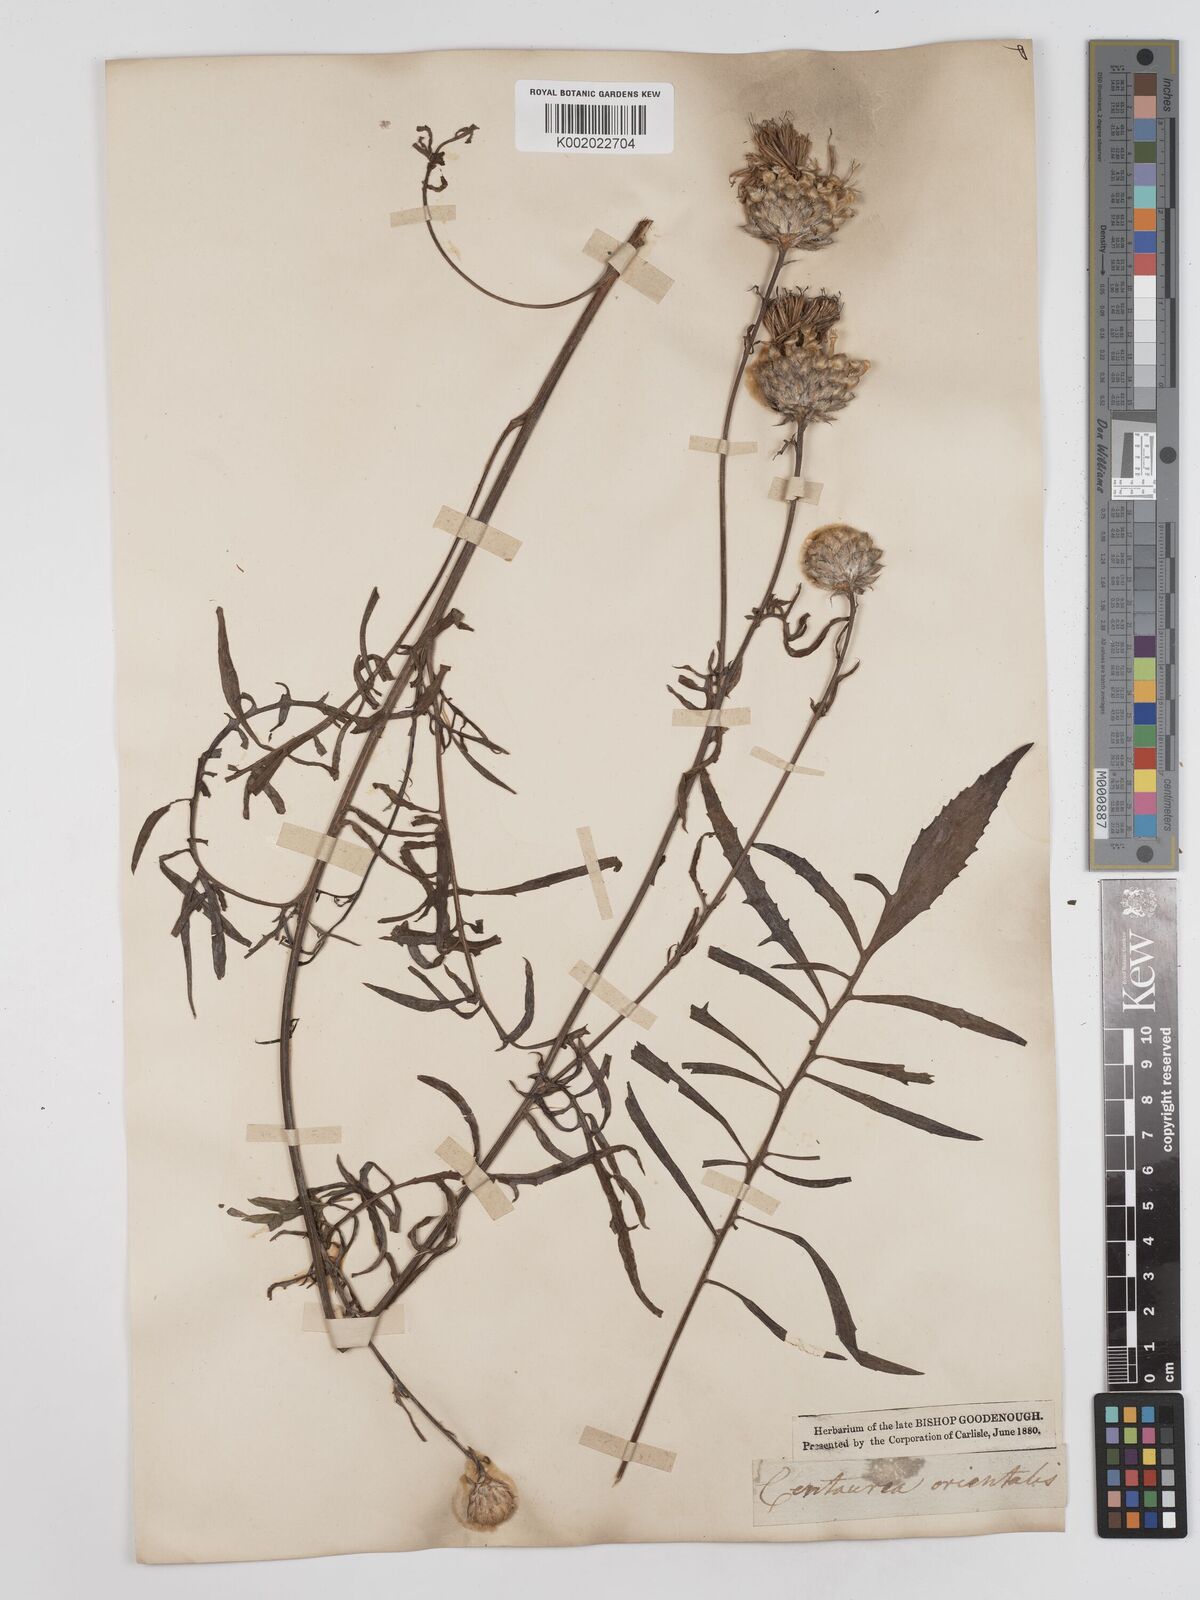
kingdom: Plantae
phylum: Tracheophyta
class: Magnoliopsida
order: Asterales
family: Asteraceae
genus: Centaurea
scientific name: Centaurea orientalis
